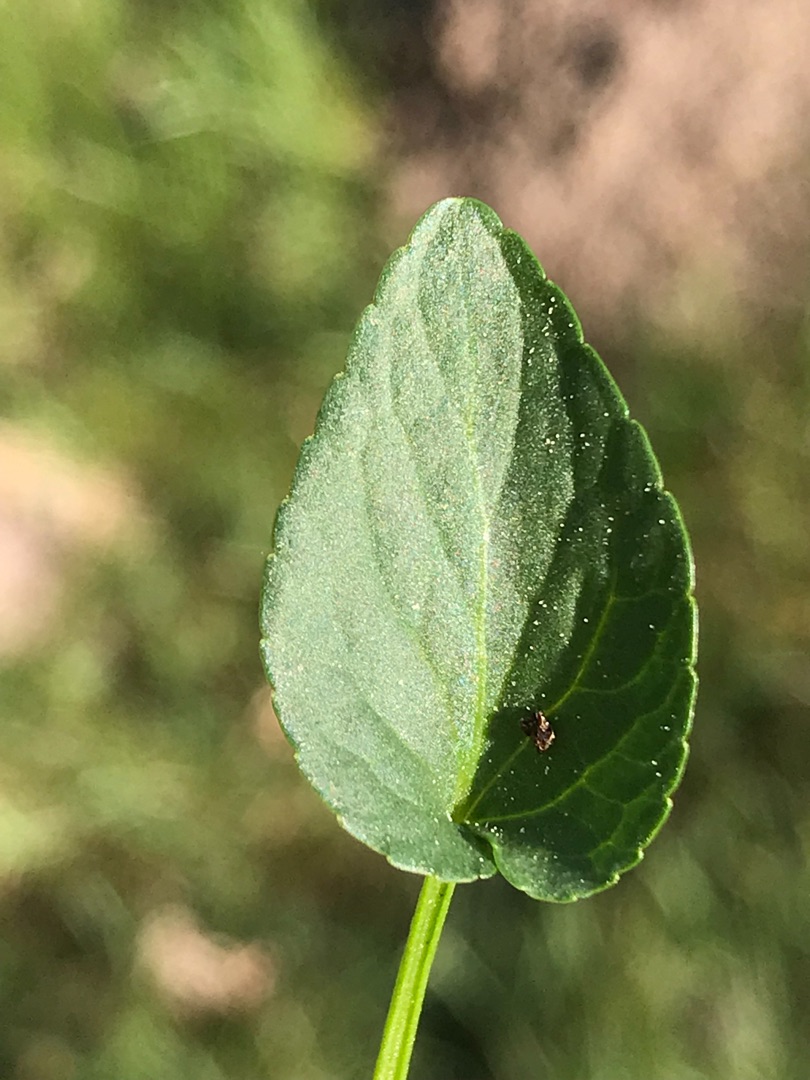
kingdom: Plantae
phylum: Tracheophyta
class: Magnoliopsida
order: Malpighiales
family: Violaceae
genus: Viola
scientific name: Viola canina
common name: Hunde-viol
